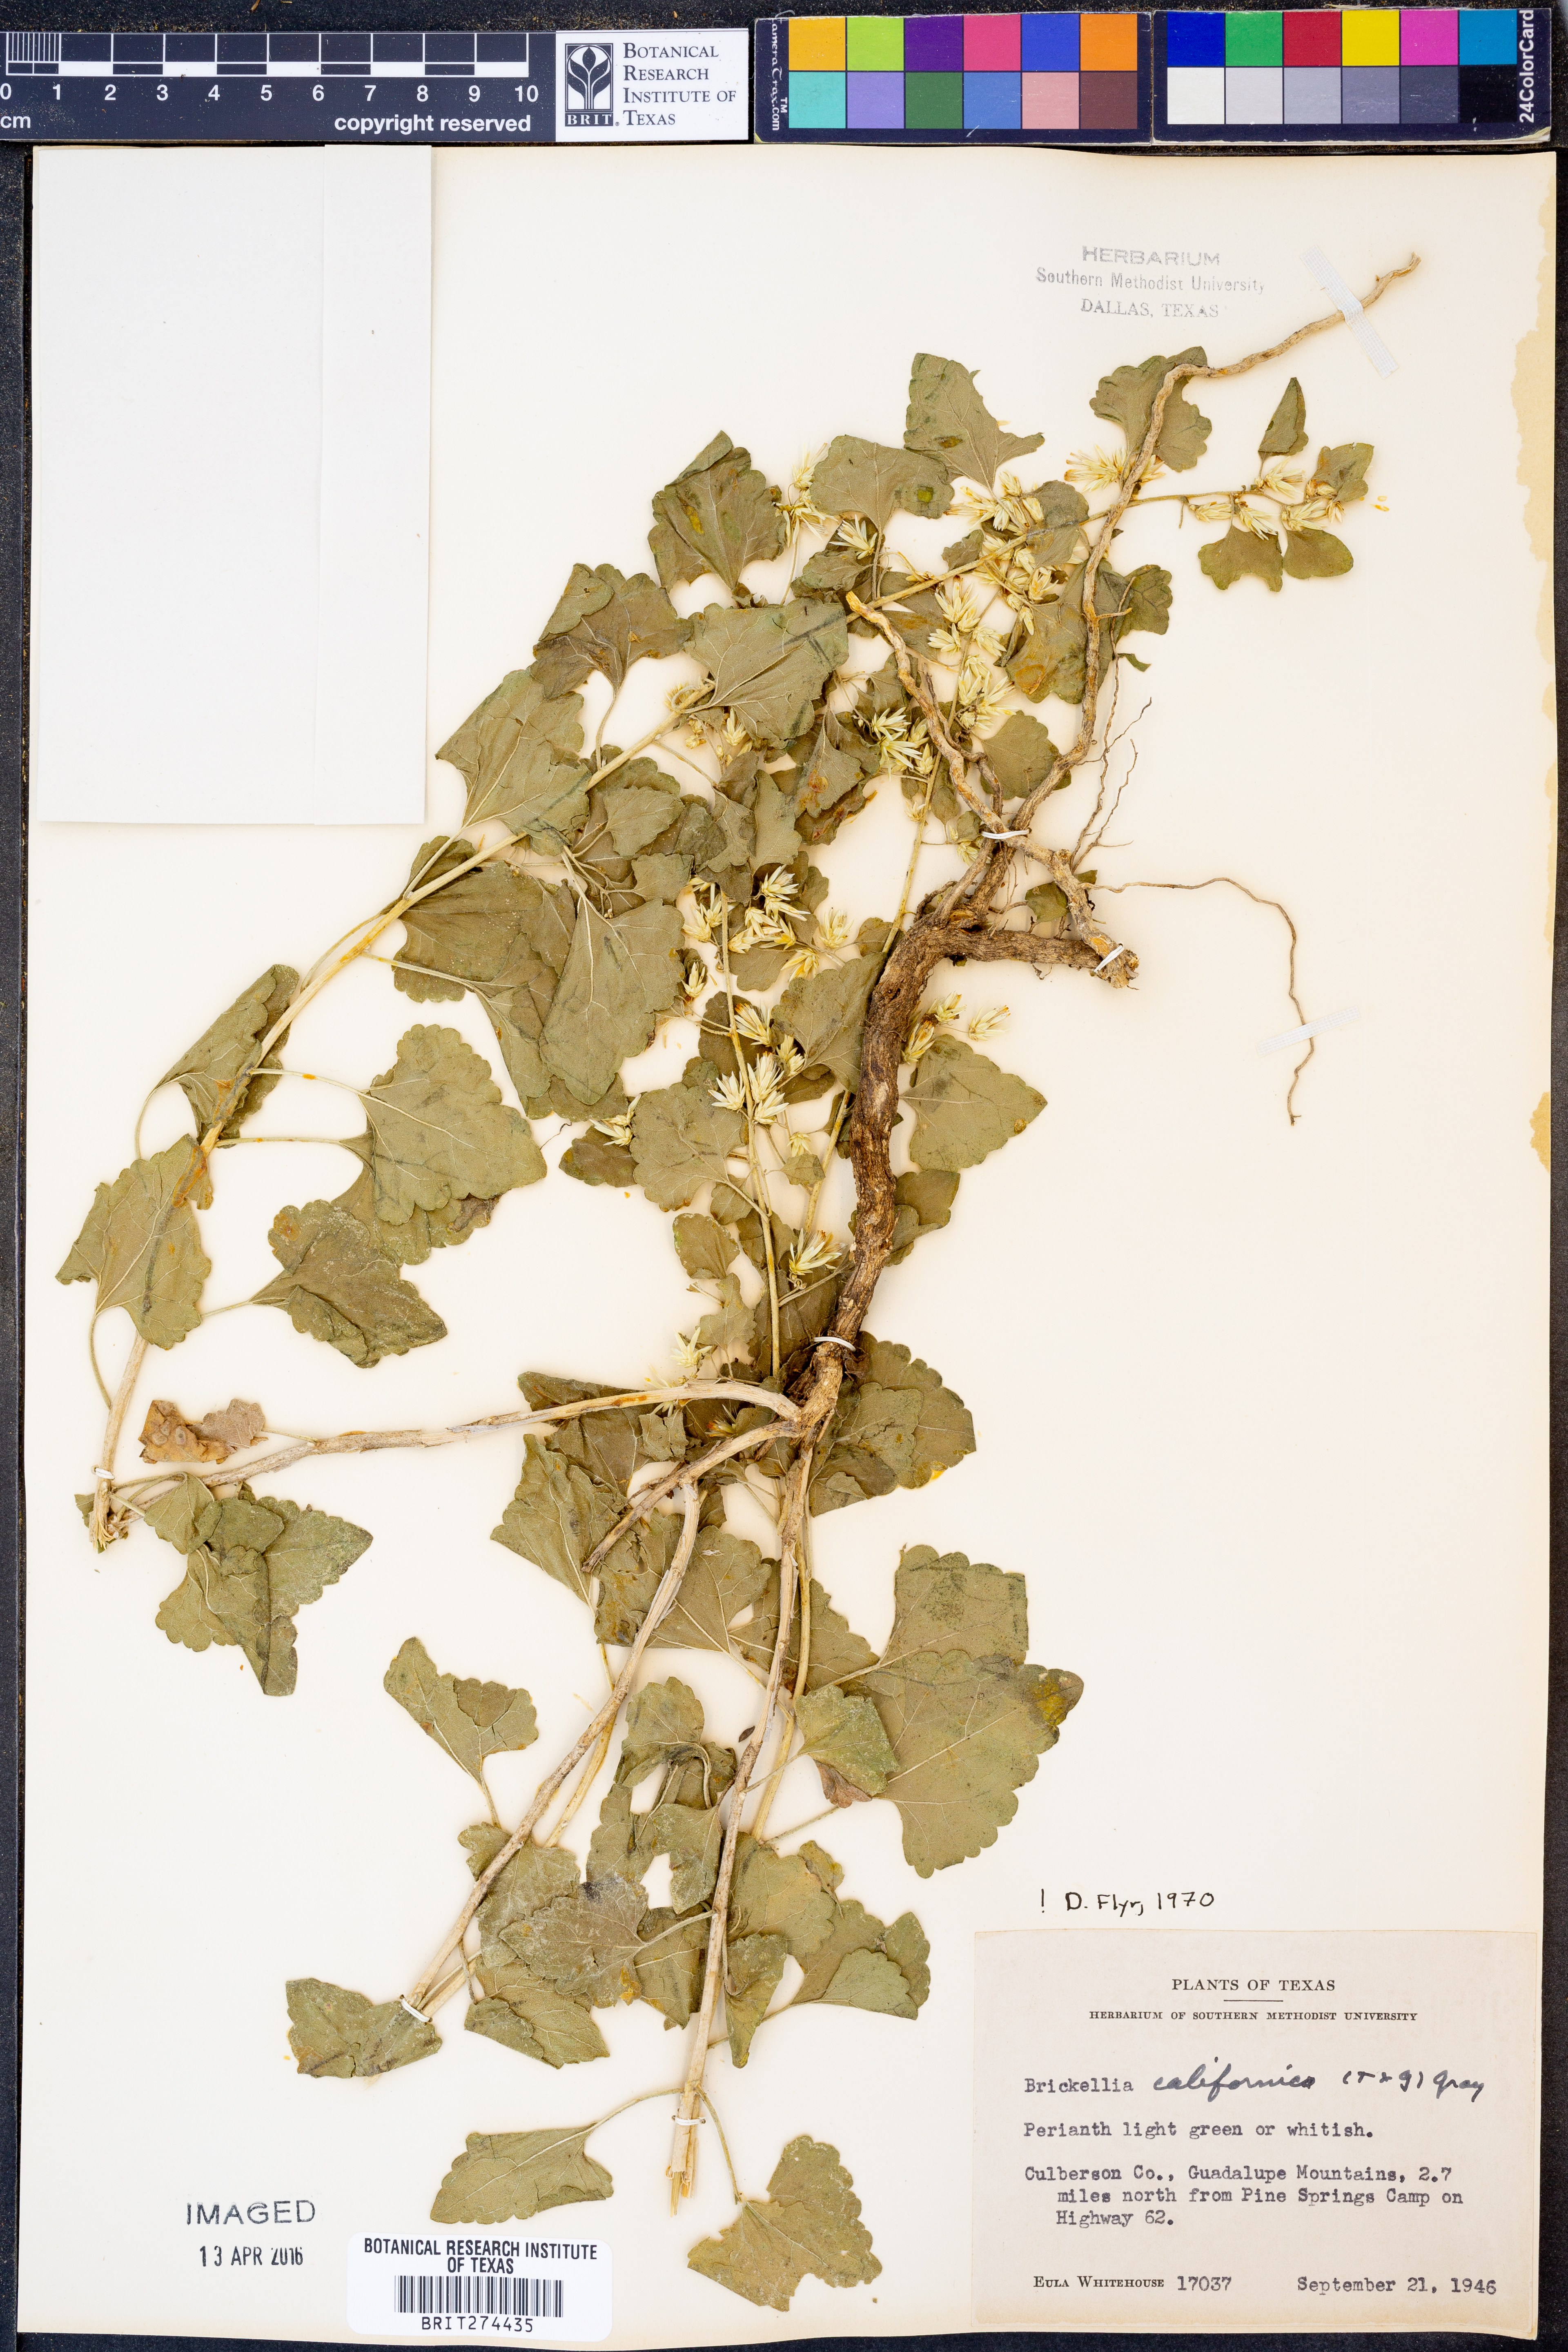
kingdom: Plantae
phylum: Tracheophyta
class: Magnoliopsida
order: Asterales
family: Asteraceae
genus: Brickellia
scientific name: Brickellia californica
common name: California brickellbush
